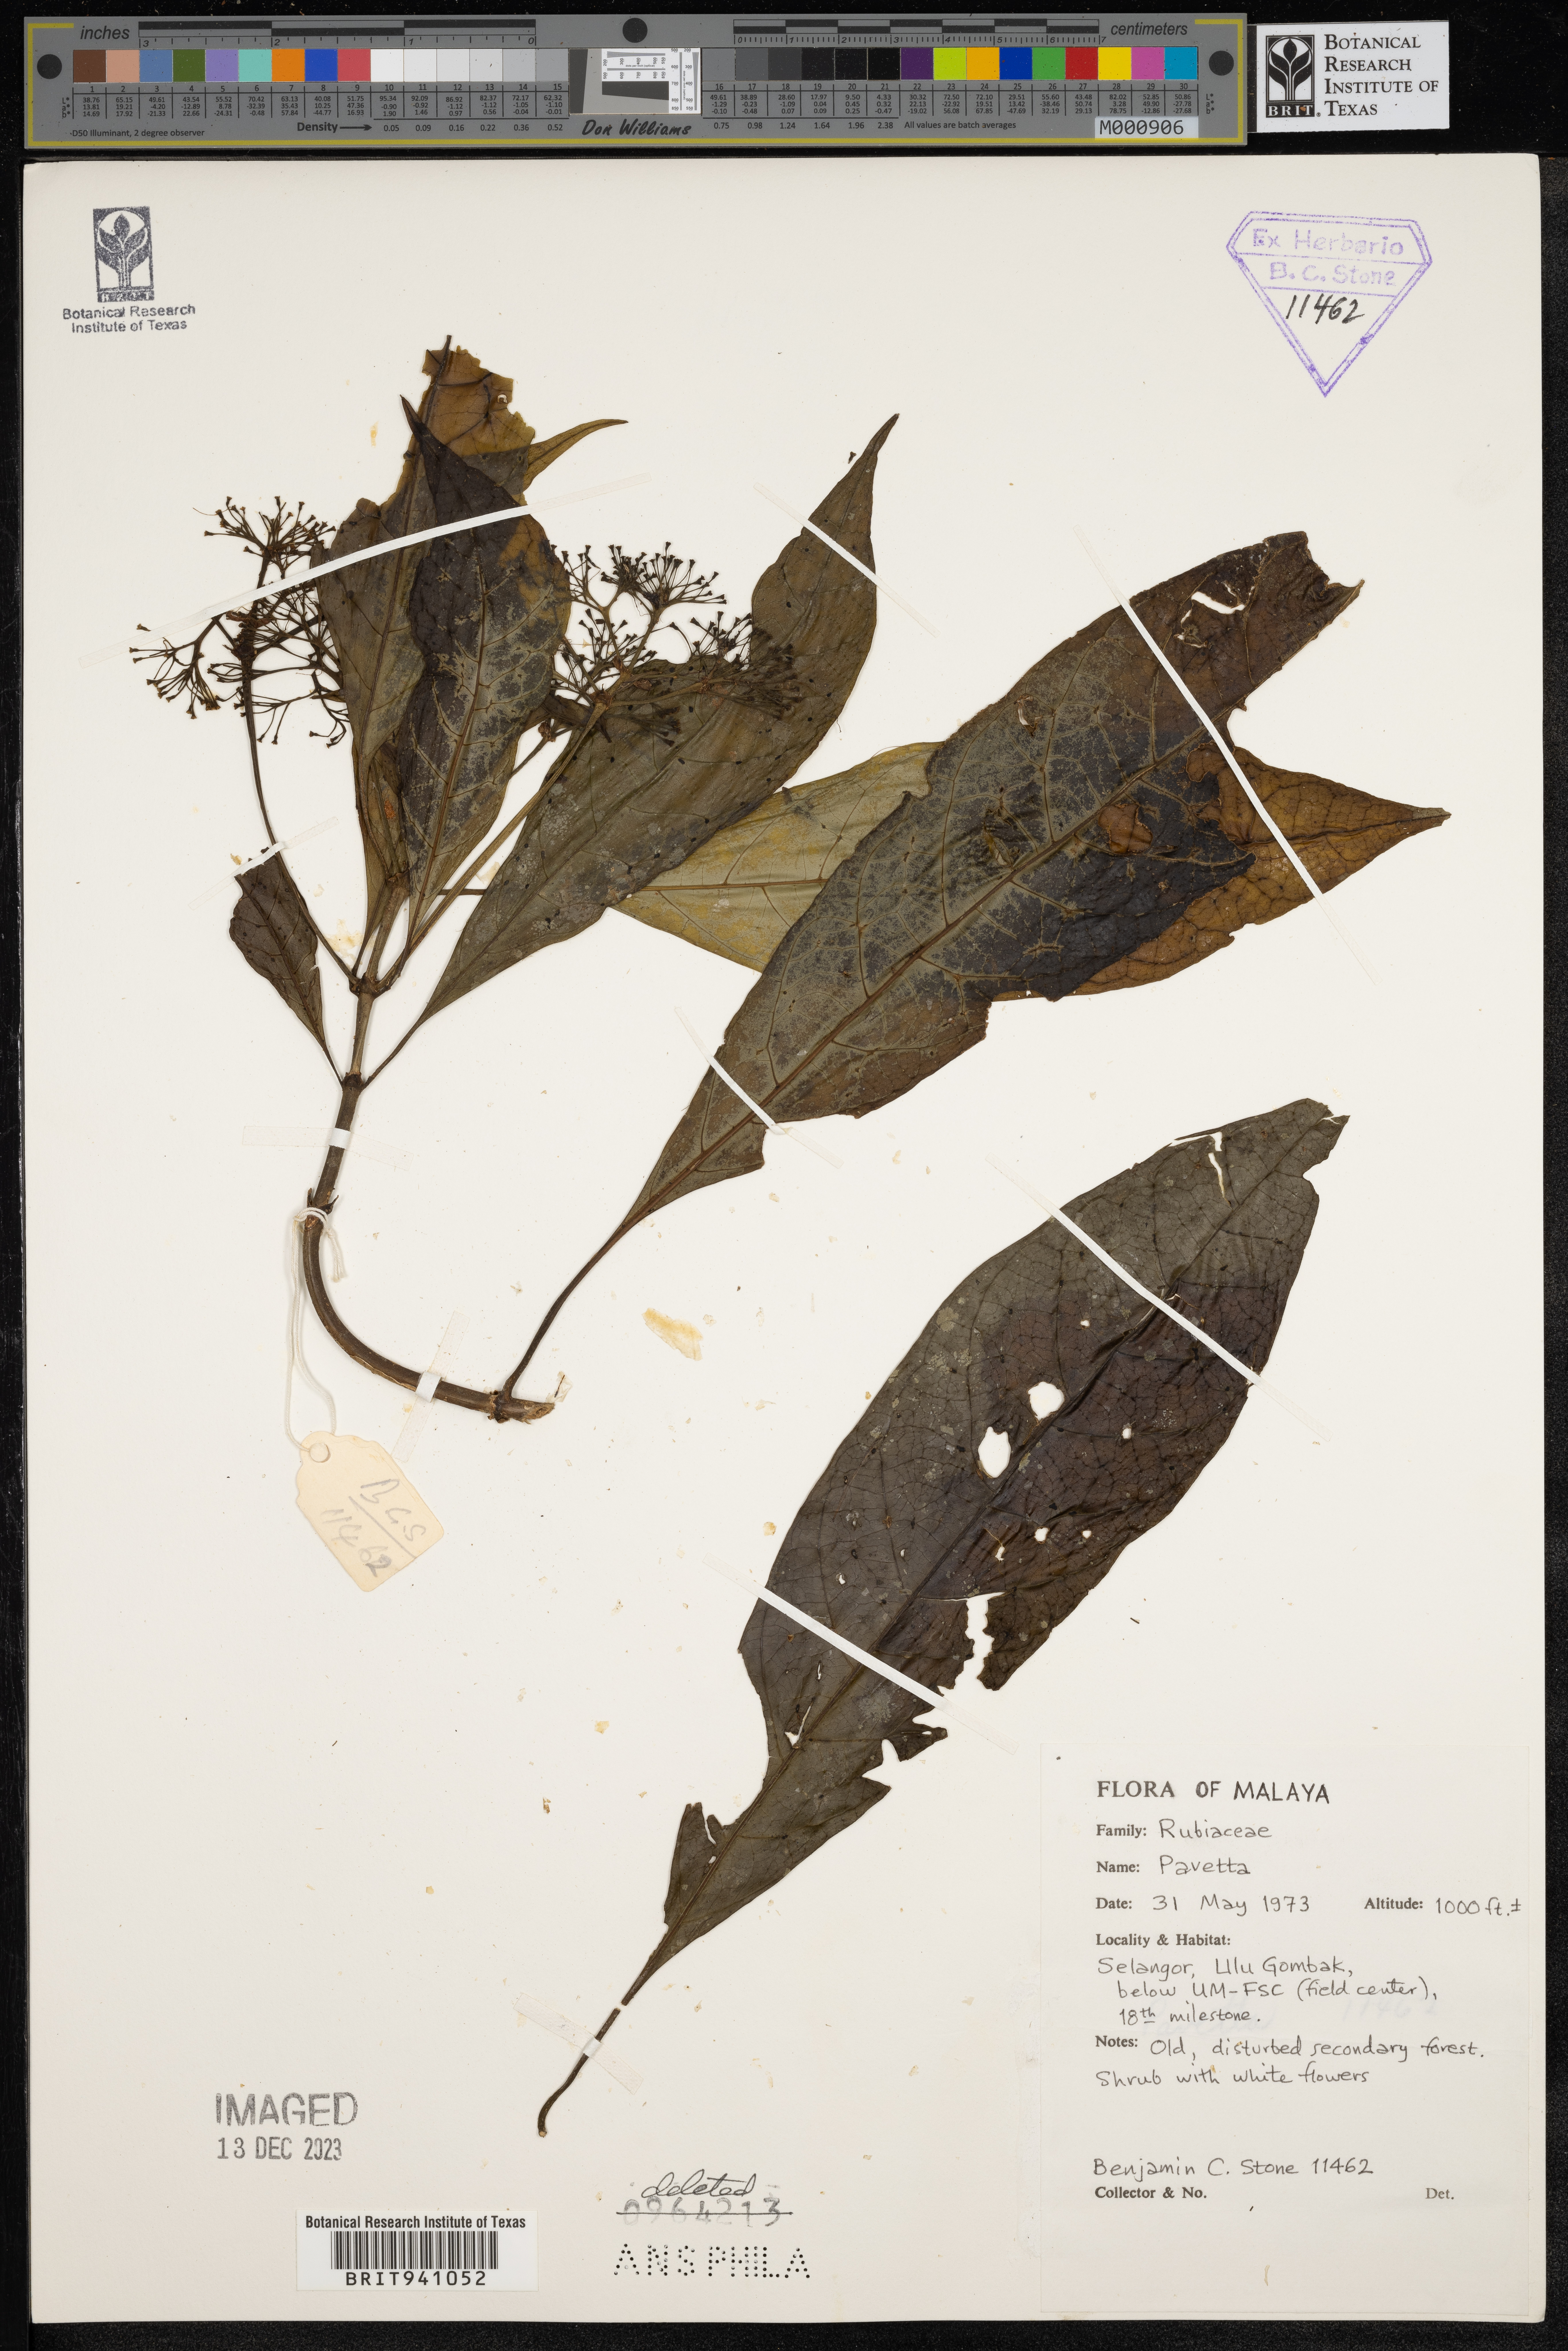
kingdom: Plantae
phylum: Tracheophyta
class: Magnoliopsida
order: Gentianales
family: Rubiaceae
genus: Pavetta
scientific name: Pavetta
